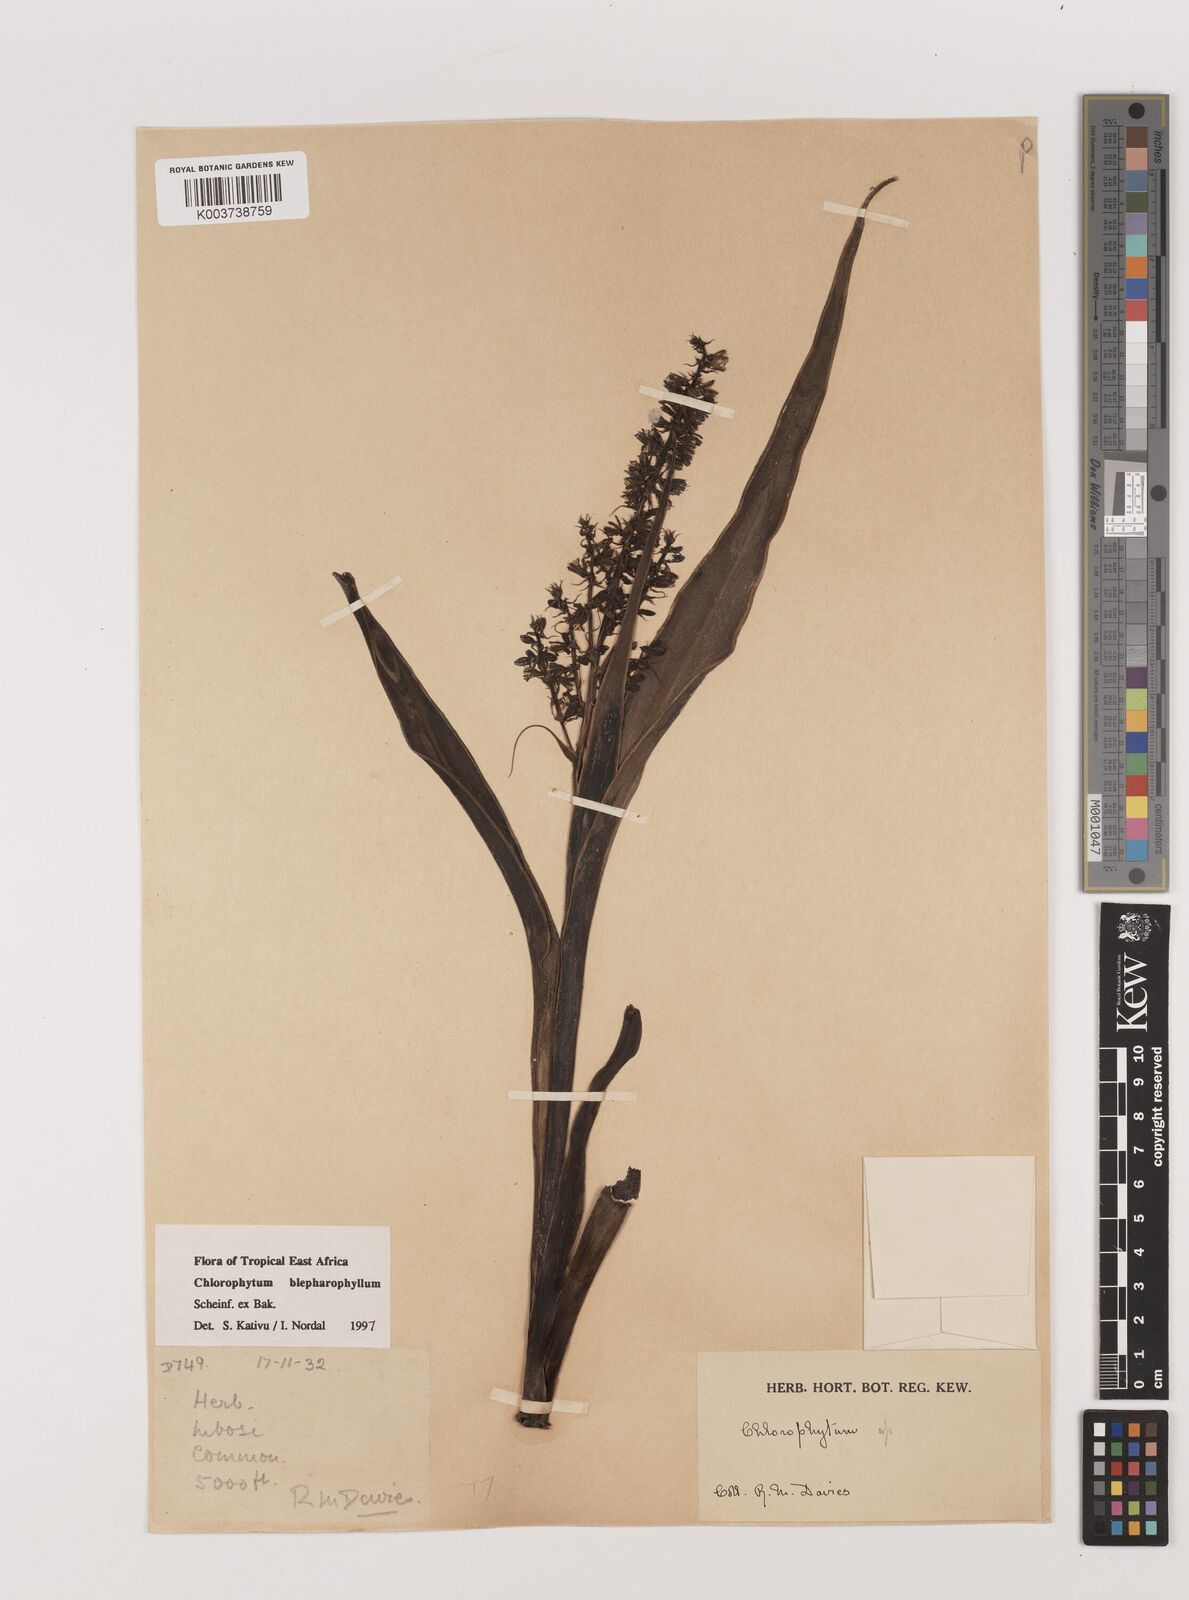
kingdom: Plantae
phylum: Tracheophyta
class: Liliopsida
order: Asparagales
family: Asparagaceae
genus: Chlorophytum
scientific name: Chlorophytum blepharophyllum
